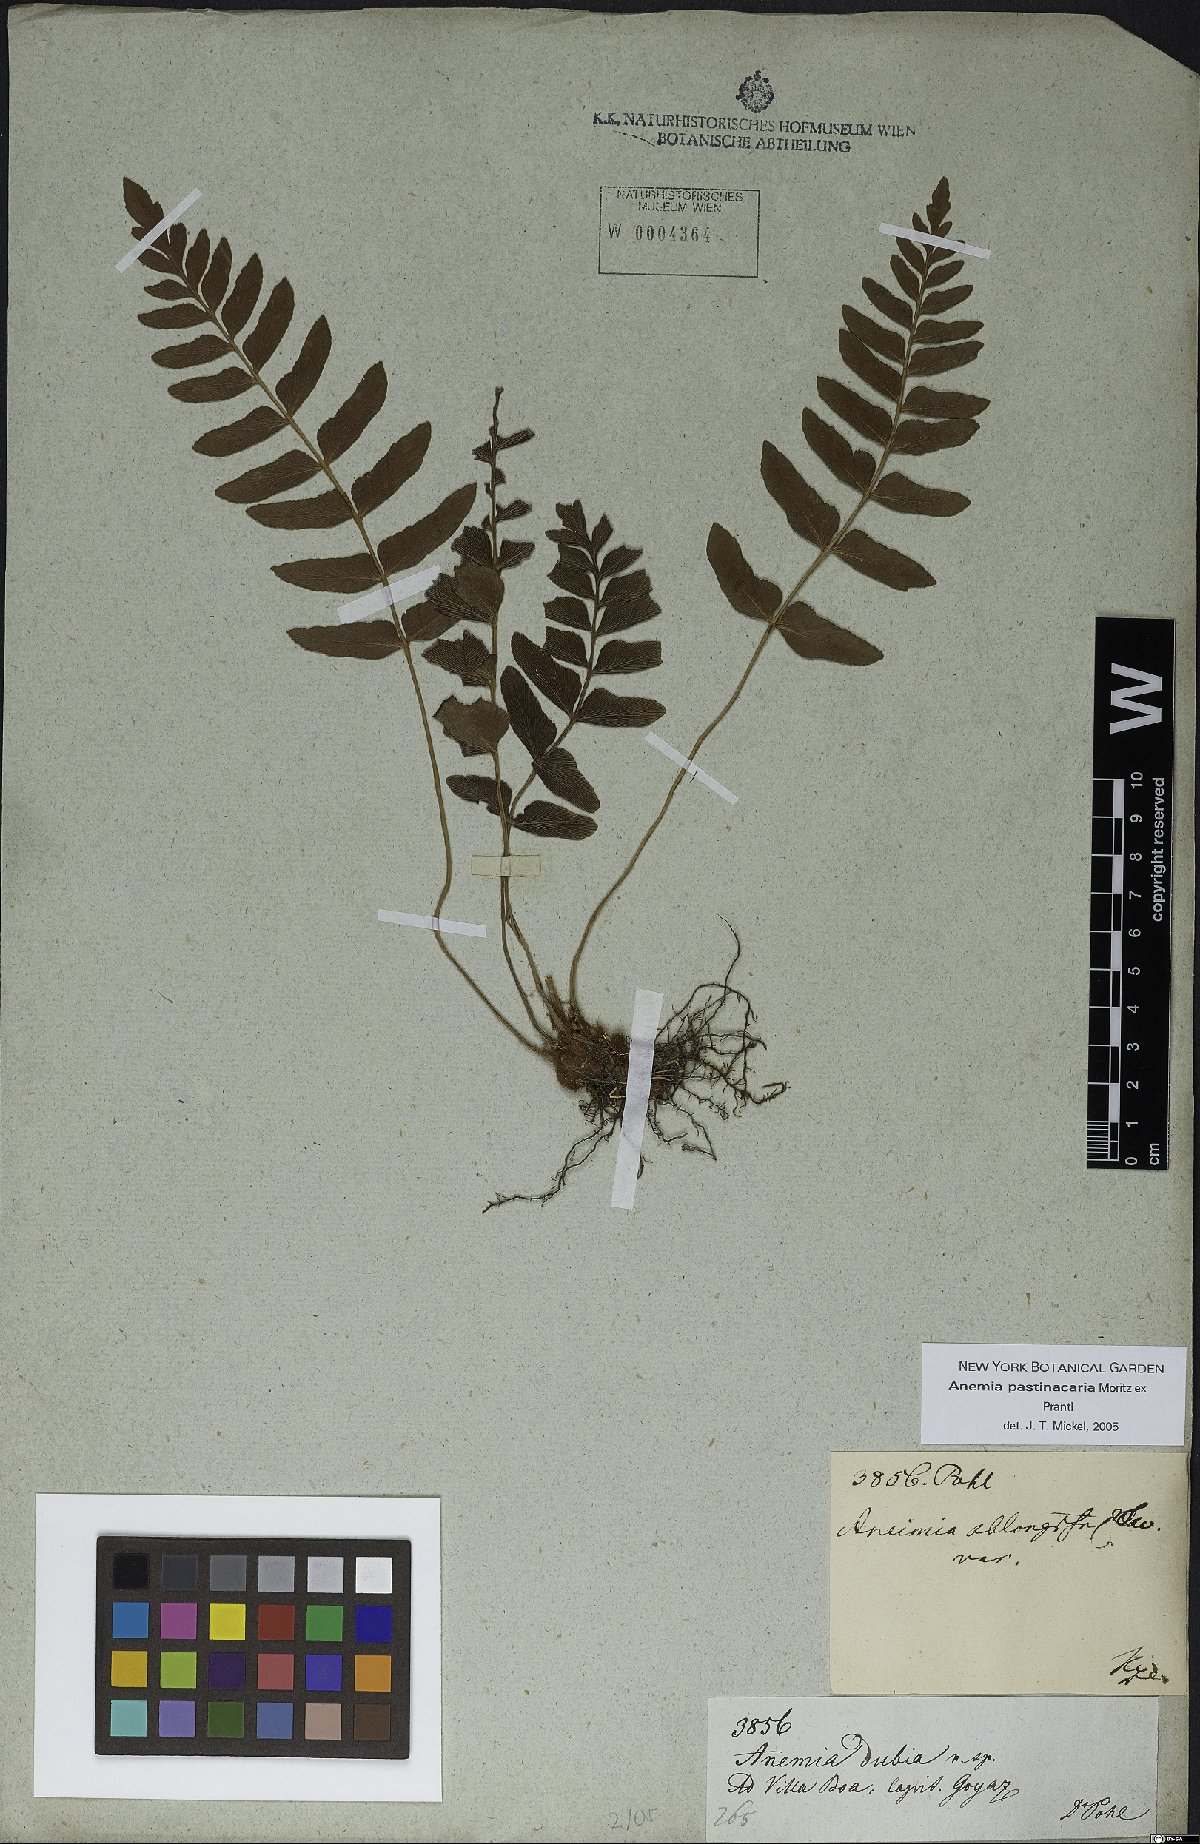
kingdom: Plantae
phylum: Tracheophyta
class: Polypodiopsida
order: Schizaeales
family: Anemiaceae
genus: Anemia
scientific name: Anemia hispida
